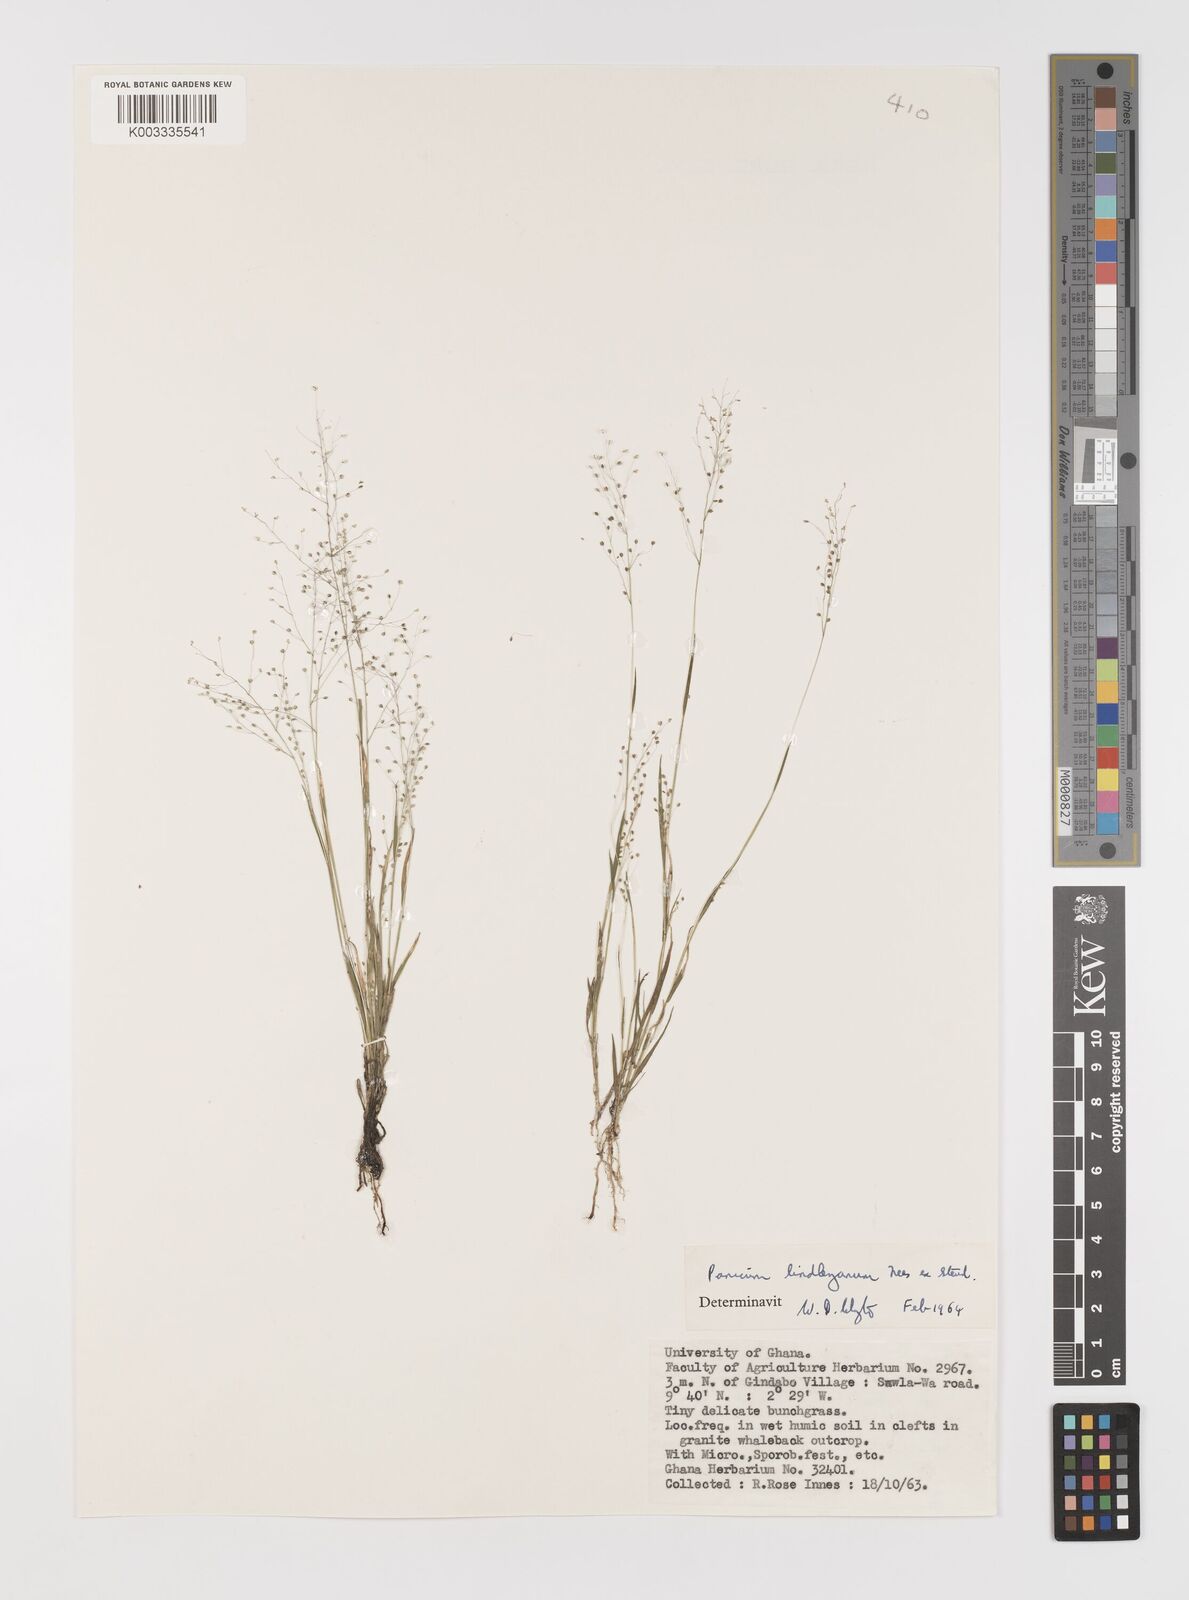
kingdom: Plantae
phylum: Tracheophyta
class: Liliopsida
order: Poales
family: Poaceae
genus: Trichanthecium
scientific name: Trichanthecium tenellum
